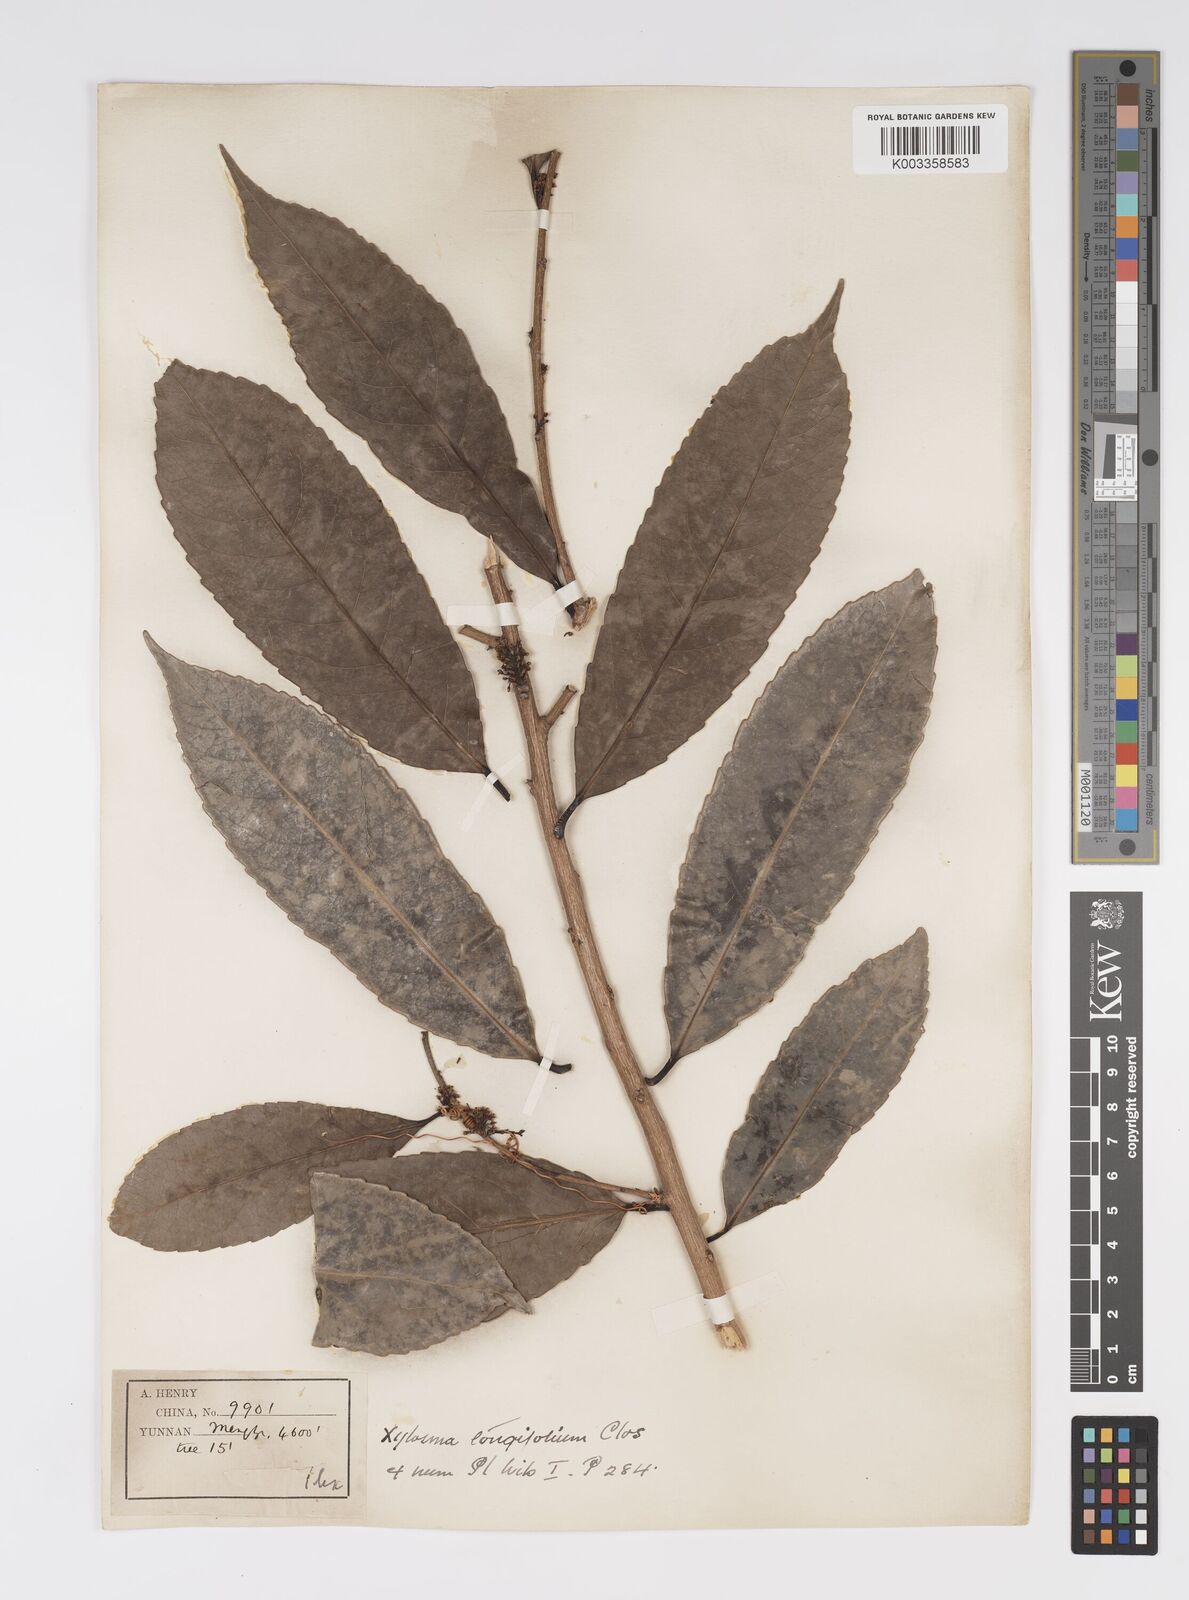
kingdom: Plantae
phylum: Tracheophyta
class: Magnoliopsida
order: Malpighiales
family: Salicaceae
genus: Xylosma
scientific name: Xylosma longifolia
